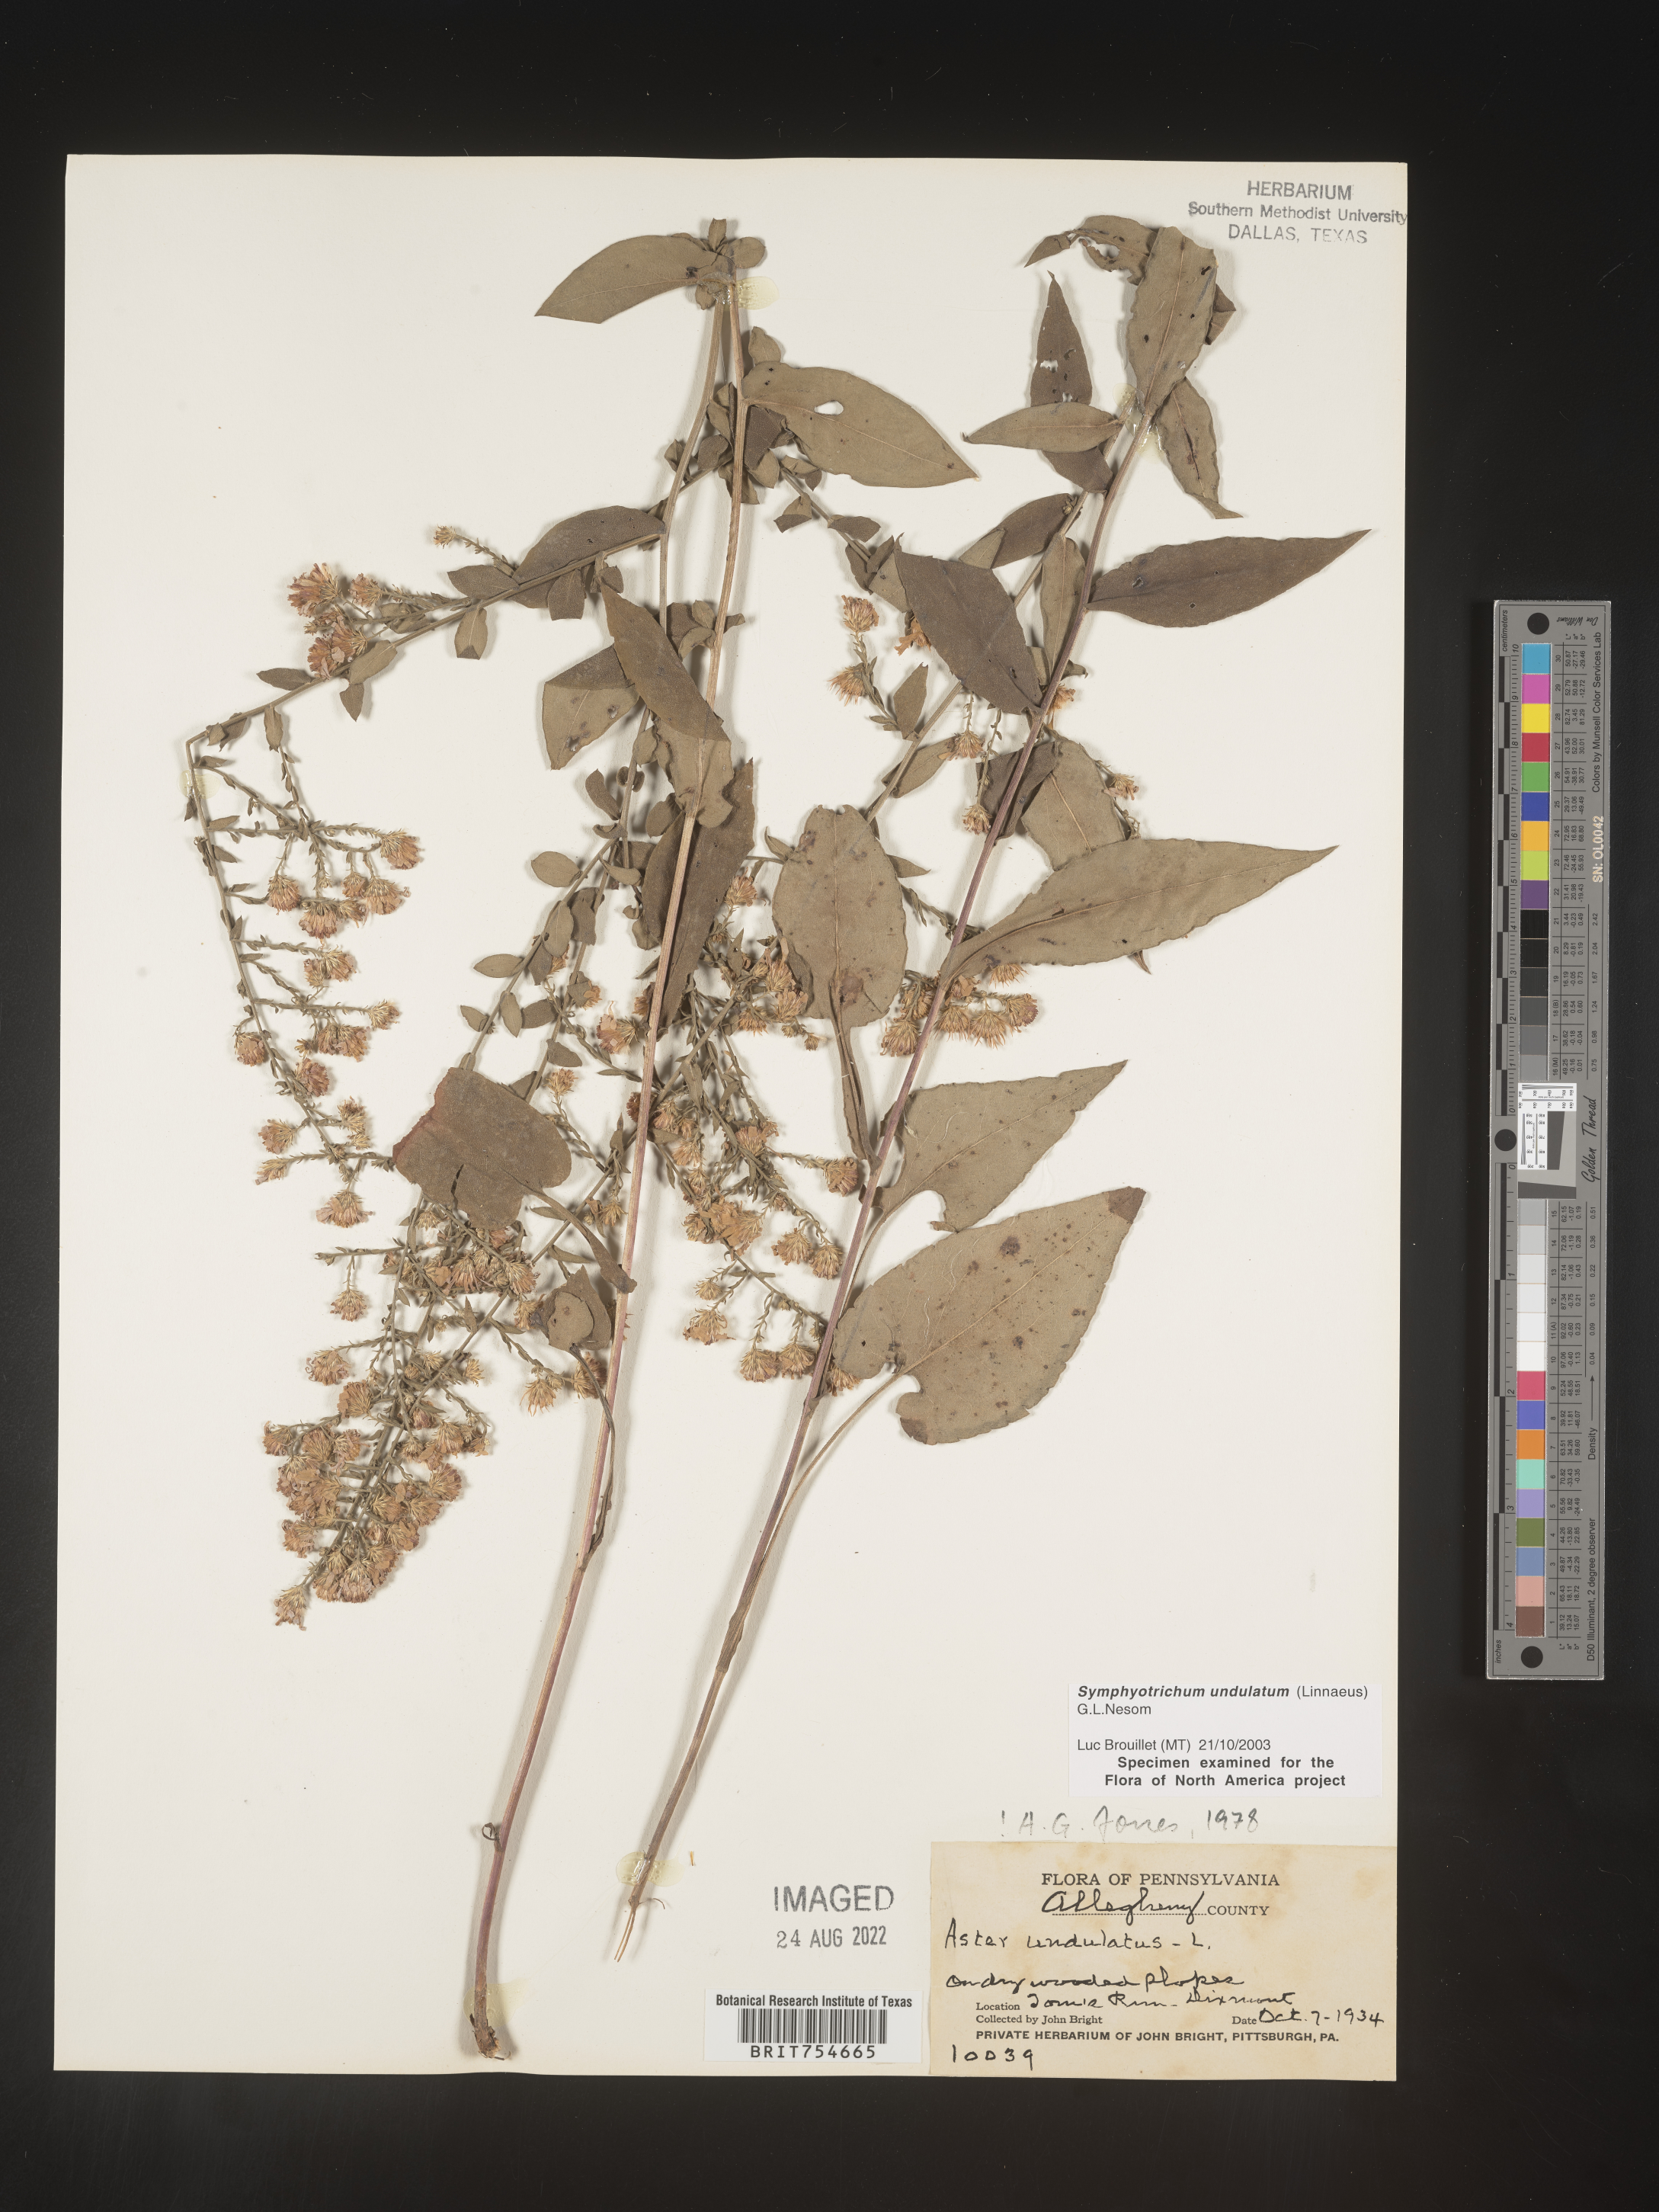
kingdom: Plantae
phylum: Tracheophyta
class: Magnoliopsida
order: Asterales
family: Asteraceae
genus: Symphyotrichum
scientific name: Symphyotrichum undulatum
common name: Clasping heart-leaf aster
